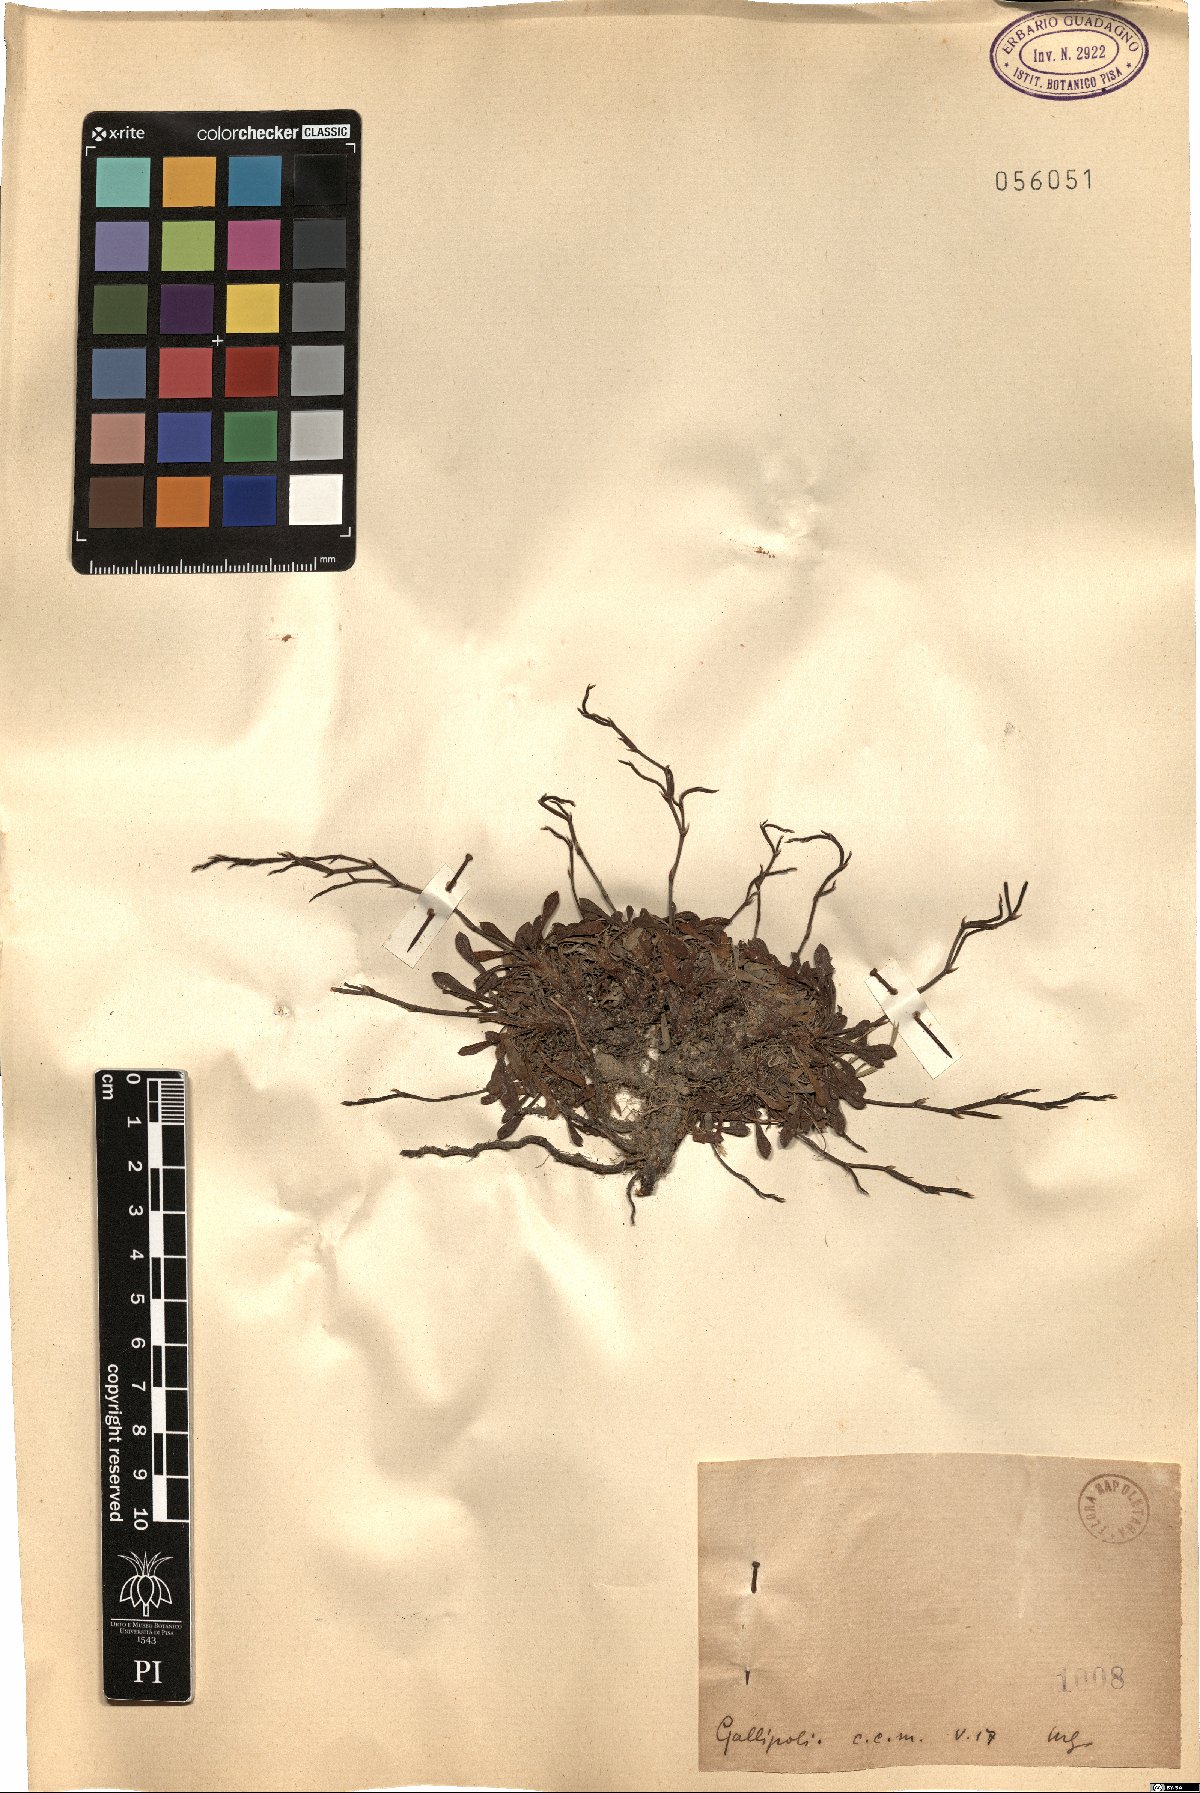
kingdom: Plantae
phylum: Tracheophyta
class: Magnoliopsida
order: Caryophyllales
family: Plumbaginaceae
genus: Armeria
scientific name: Armeria
